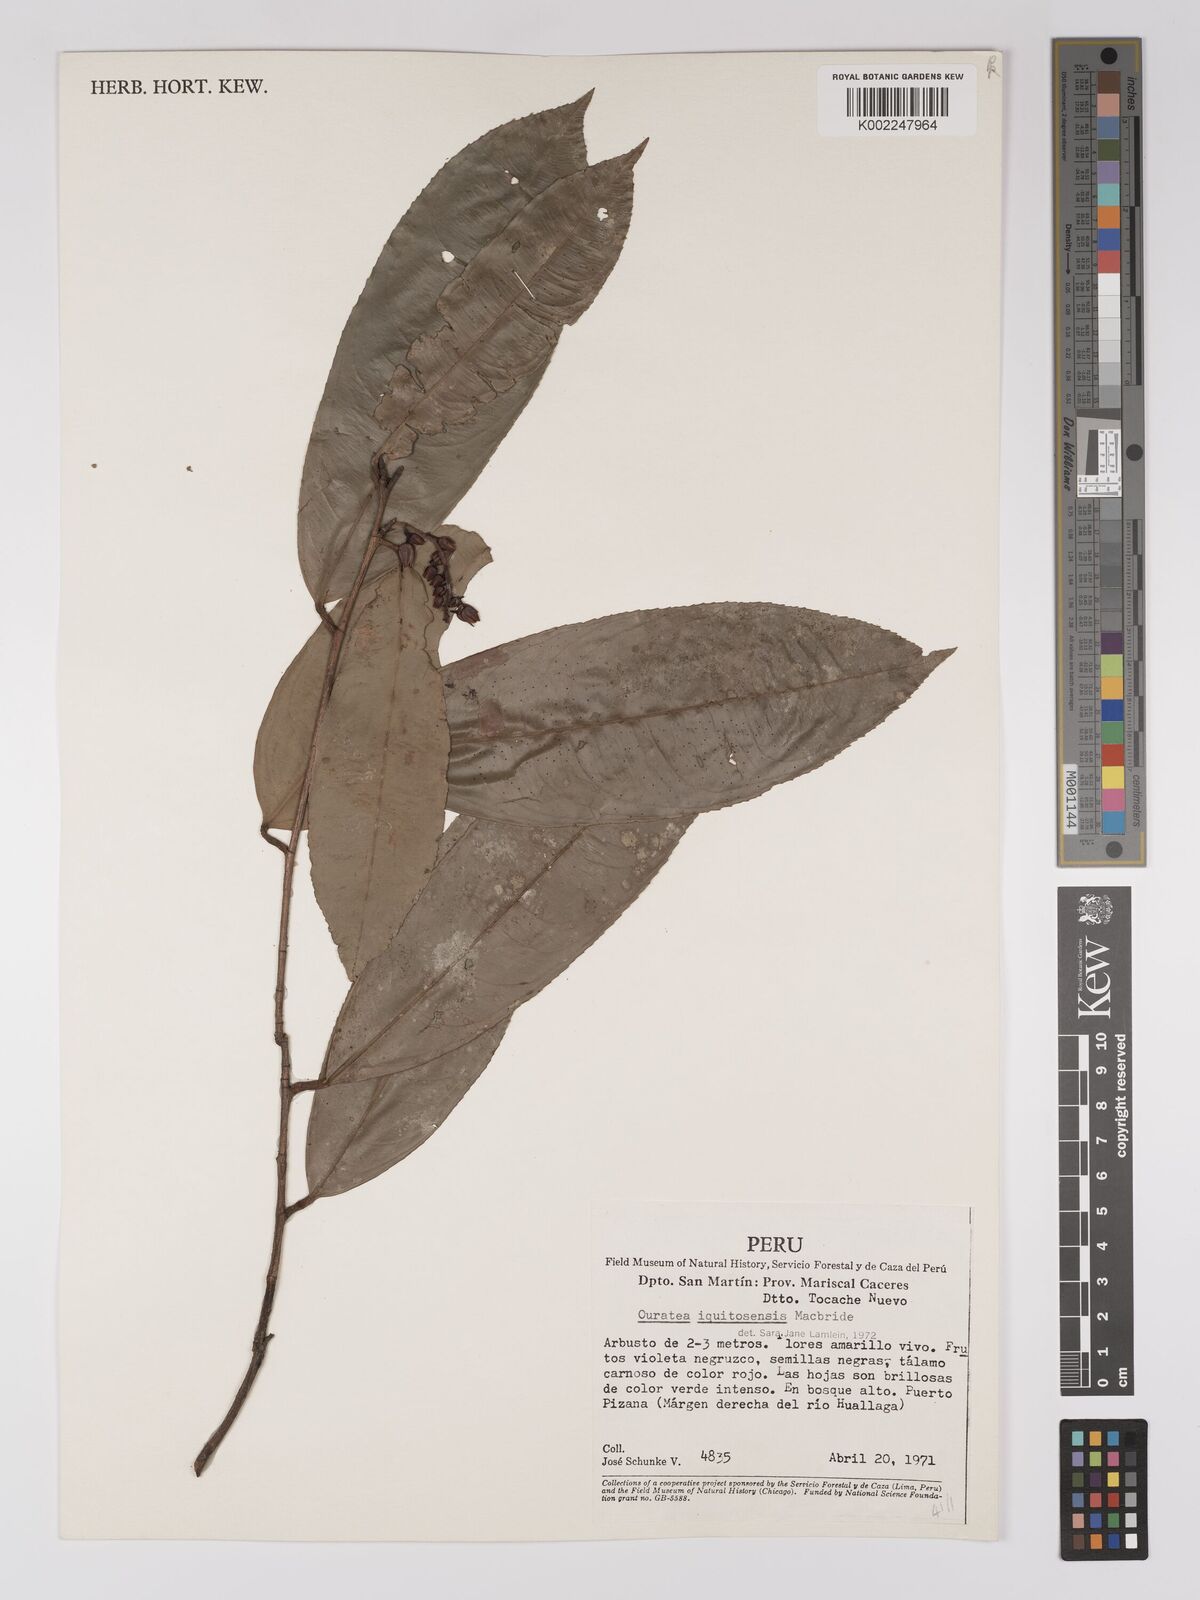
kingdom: Plantae
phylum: Tracheophyta
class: Magnoliopsida
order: Malpighiales
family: Ochnaceae
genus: Ouratea
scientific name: Ouratea iquitosensis
